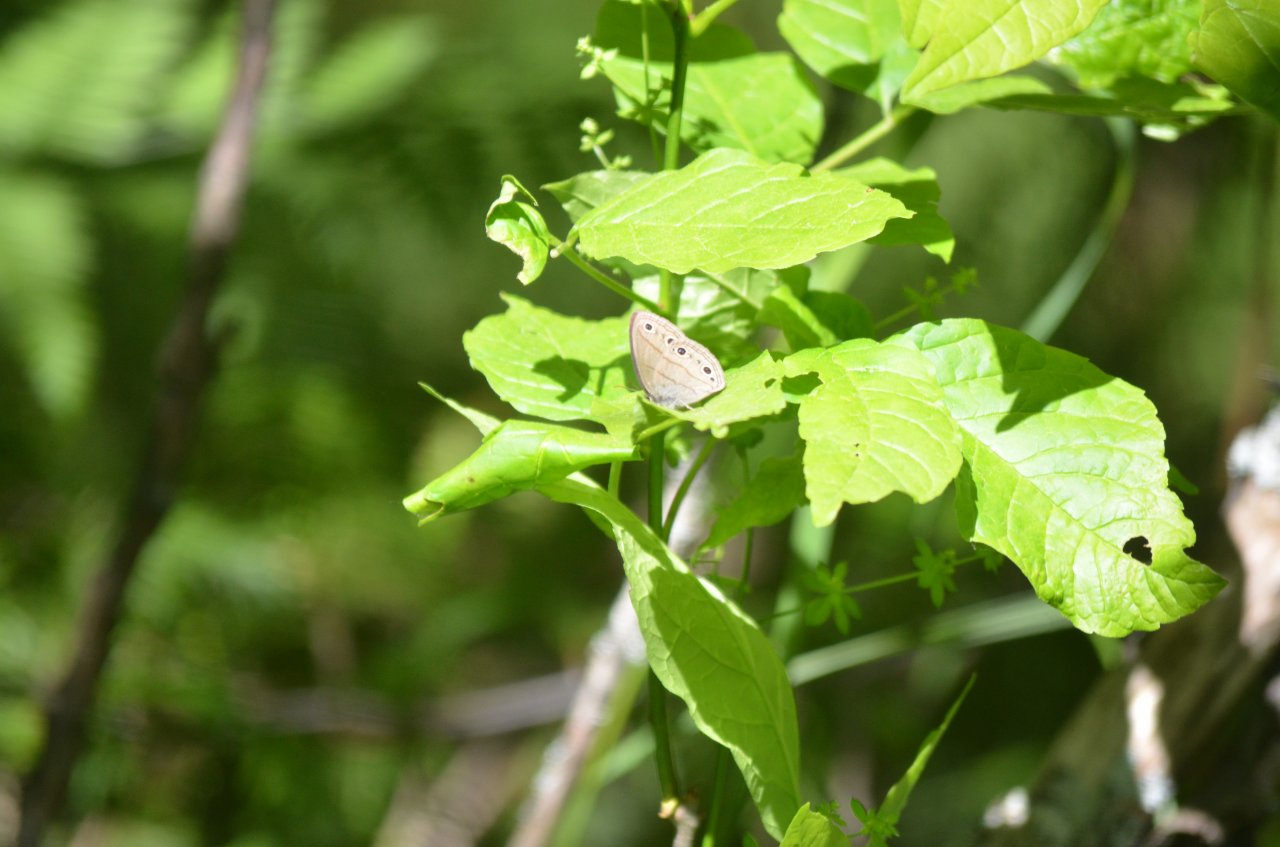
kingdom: Animalia
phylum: Arthropoda
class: Insecta
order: Lepidoptera
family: Nymphalidae
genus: Limenitis
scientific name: Limenitis arthemis
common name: Red-spotted Admiral
